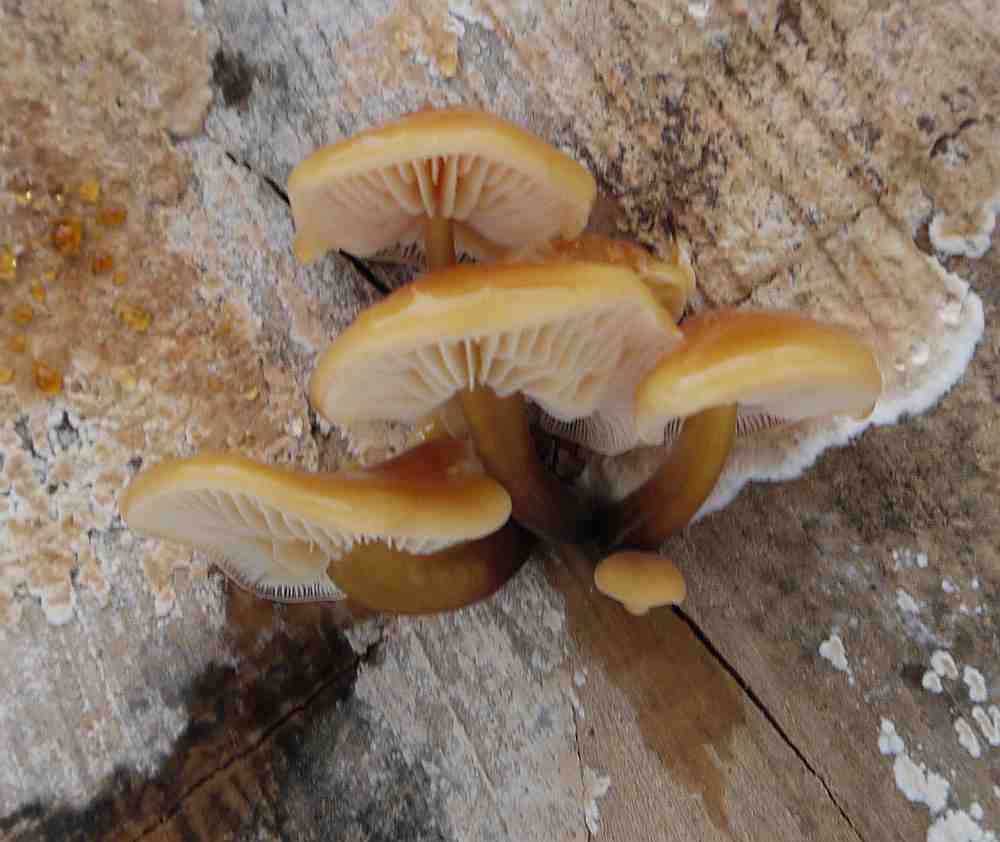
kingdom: Fungi
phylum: Basidiomycota
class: Agaricomycetes
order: Agaricales
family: Physalacriaceae
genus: Flammulina
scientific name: Flammulina velutipes
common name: gul fløjlsfod
